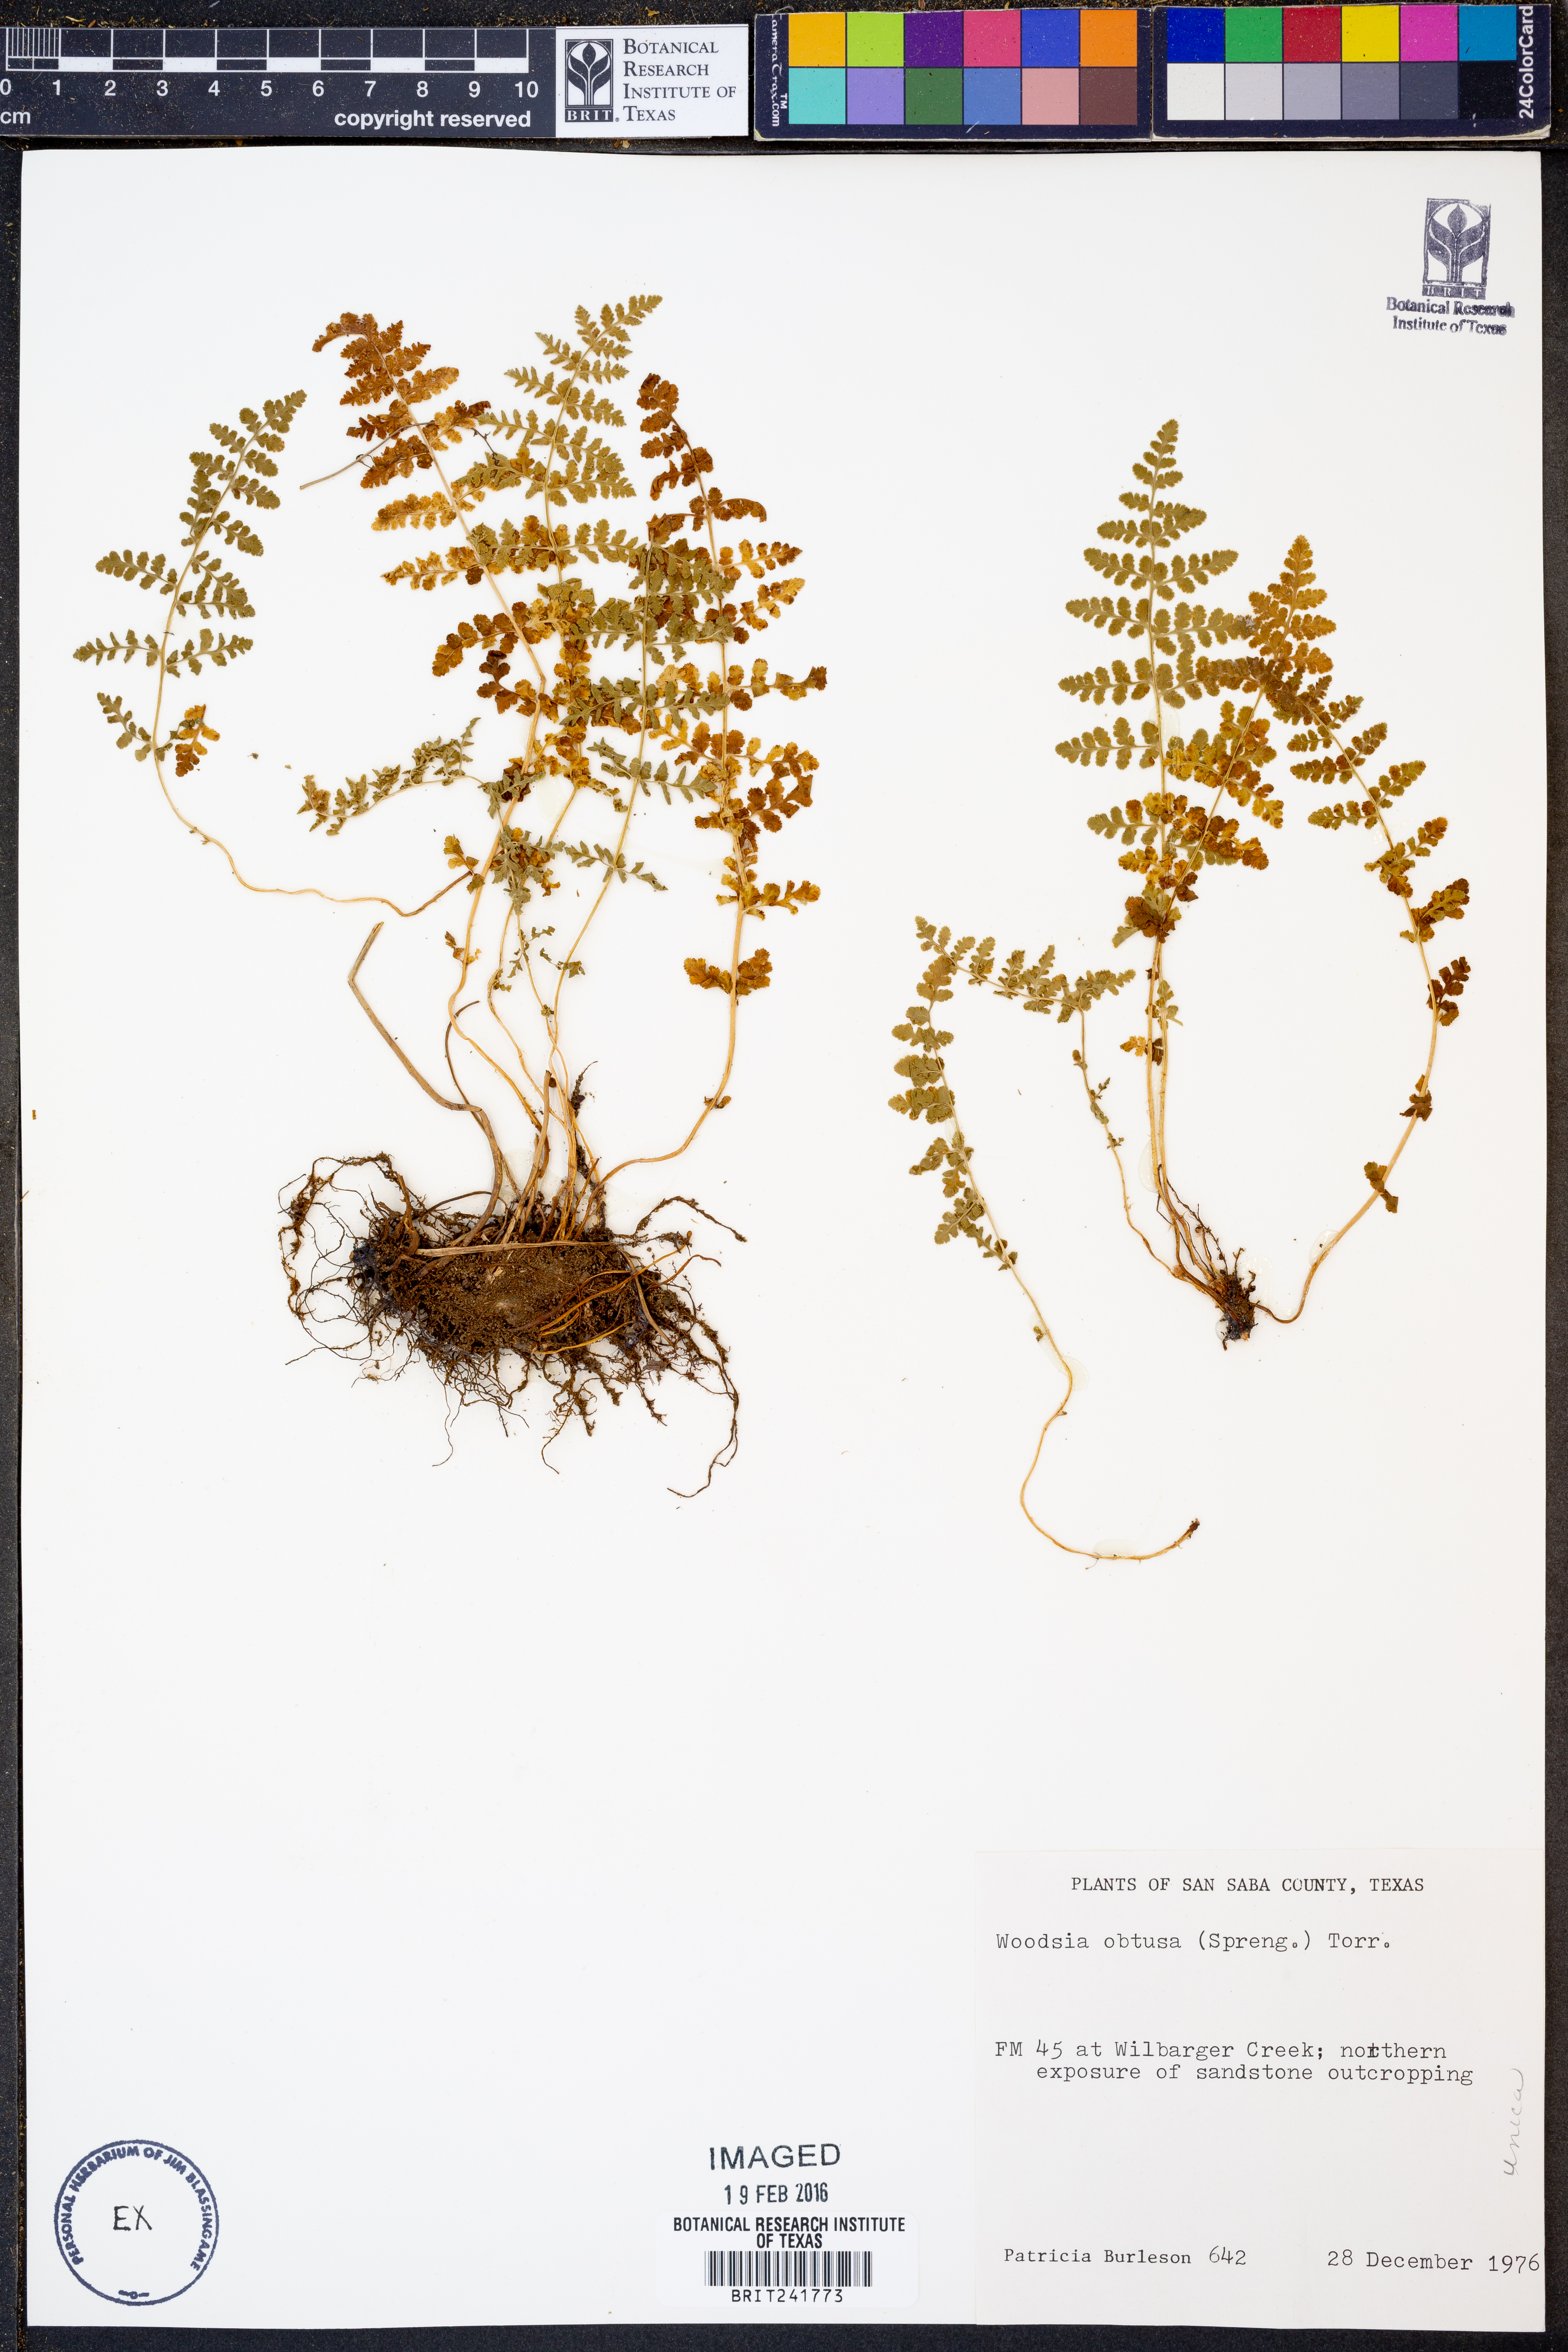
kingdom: Plantae
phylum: Tracheophyta
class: Polypodiopsida
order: Polypodiales
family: Woodsiaceae
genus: Physematium
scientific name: Physematium obtusum
